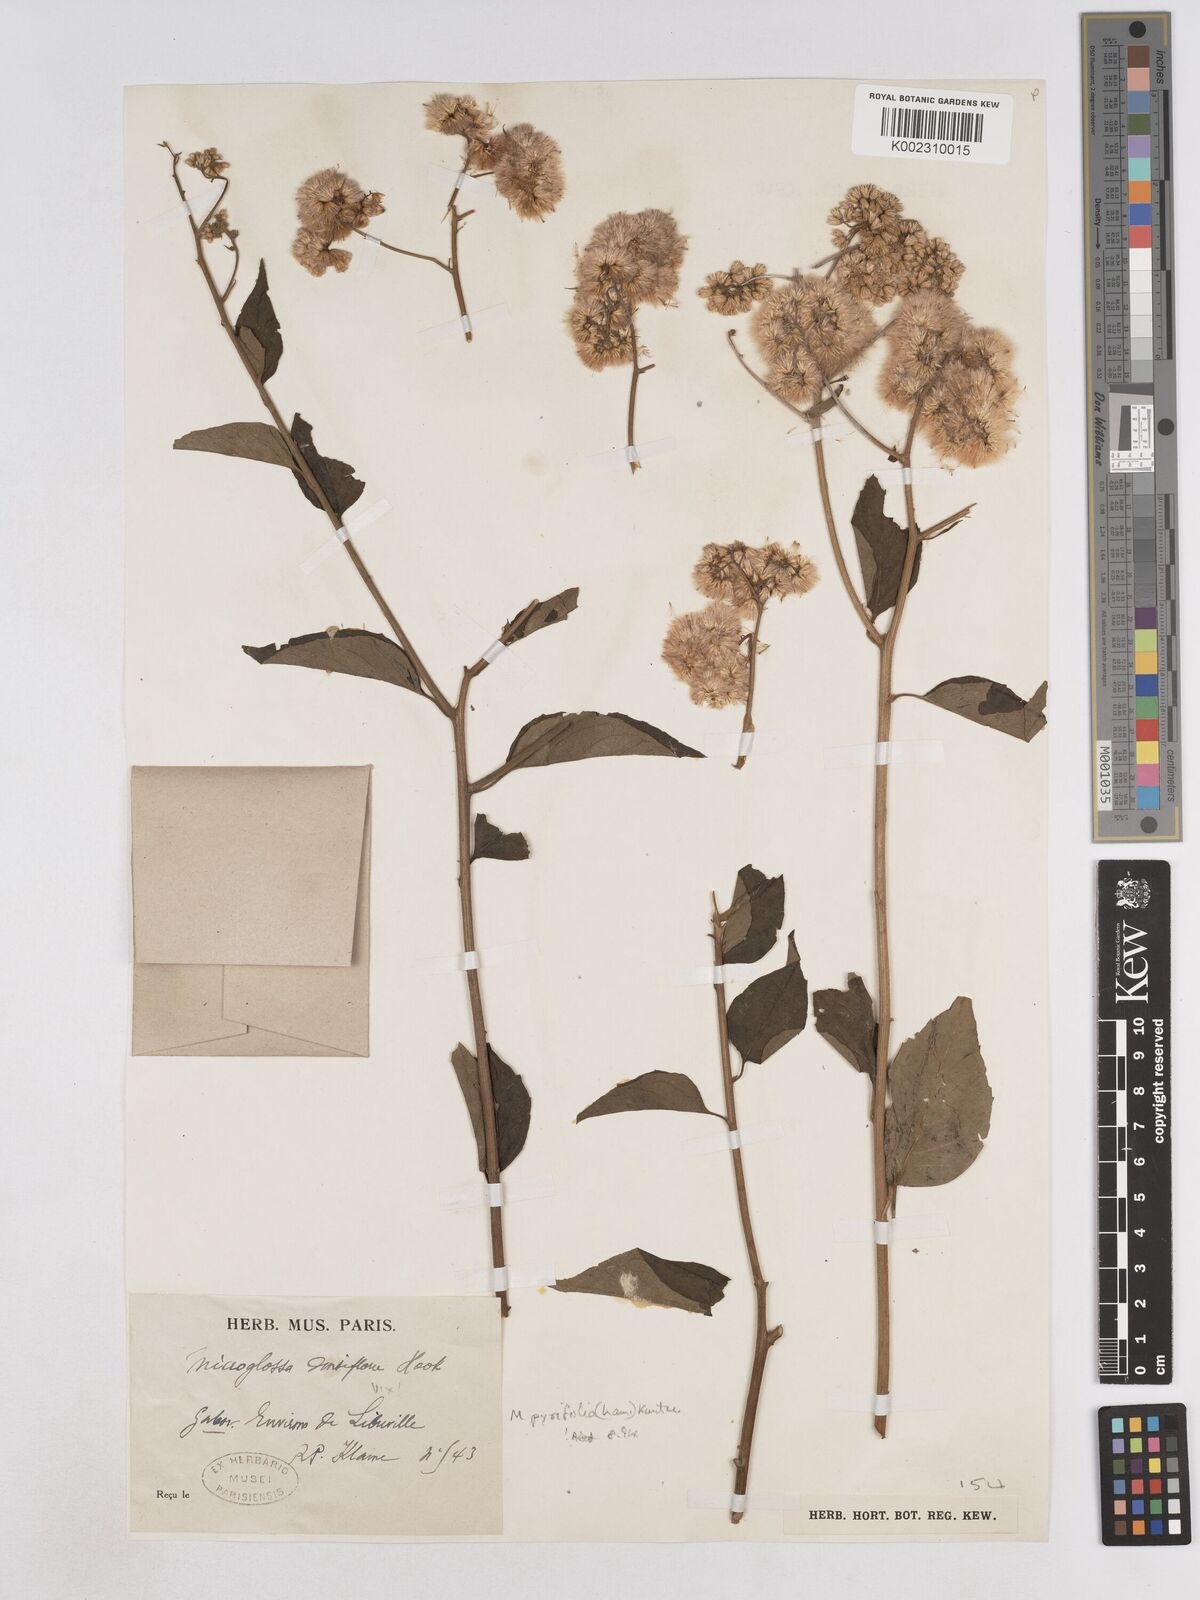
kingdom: Plantae
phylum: Tracheophyta
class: Magnoliopsida
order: Asterales
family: Asteraceae
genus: Microglossa
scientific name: Microglossa pyrifolia
